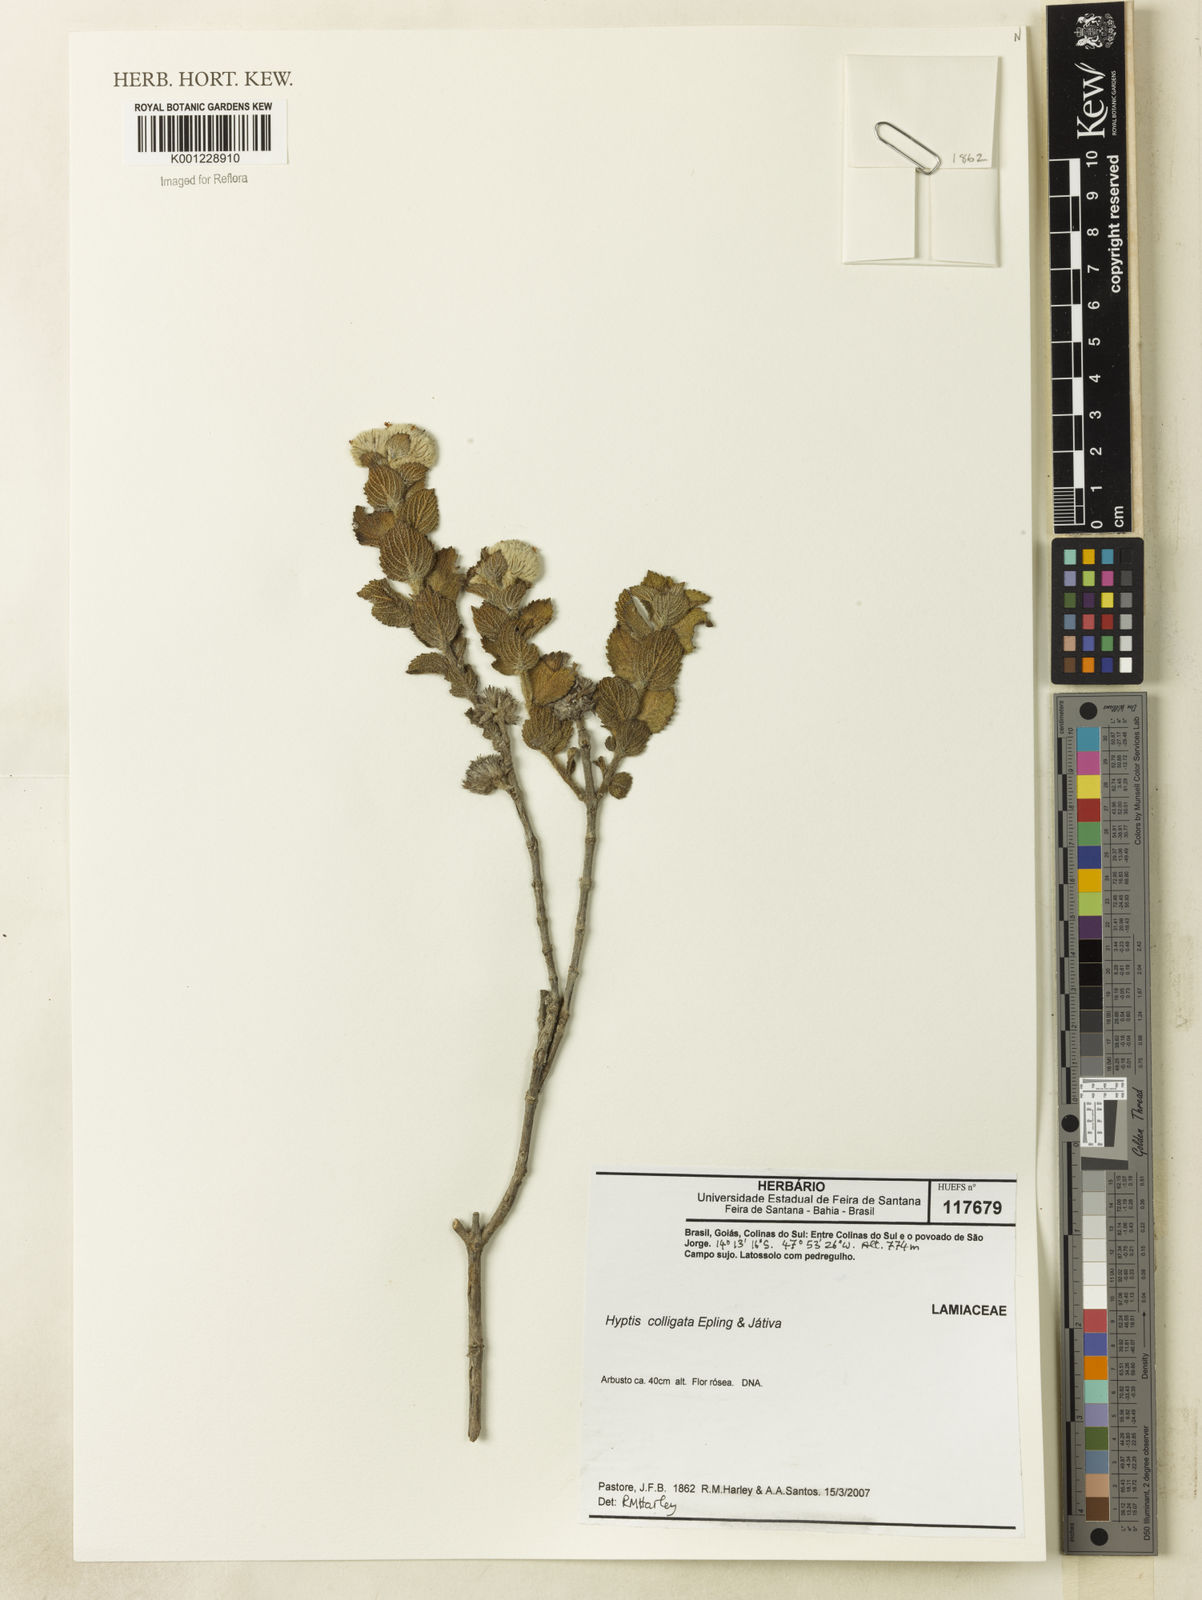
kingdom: Plantae
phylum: Tracheophyta
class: Magnoliopsida
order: Lamiales
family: Lamiaceae
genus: Hyptis
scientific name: Hyptis
